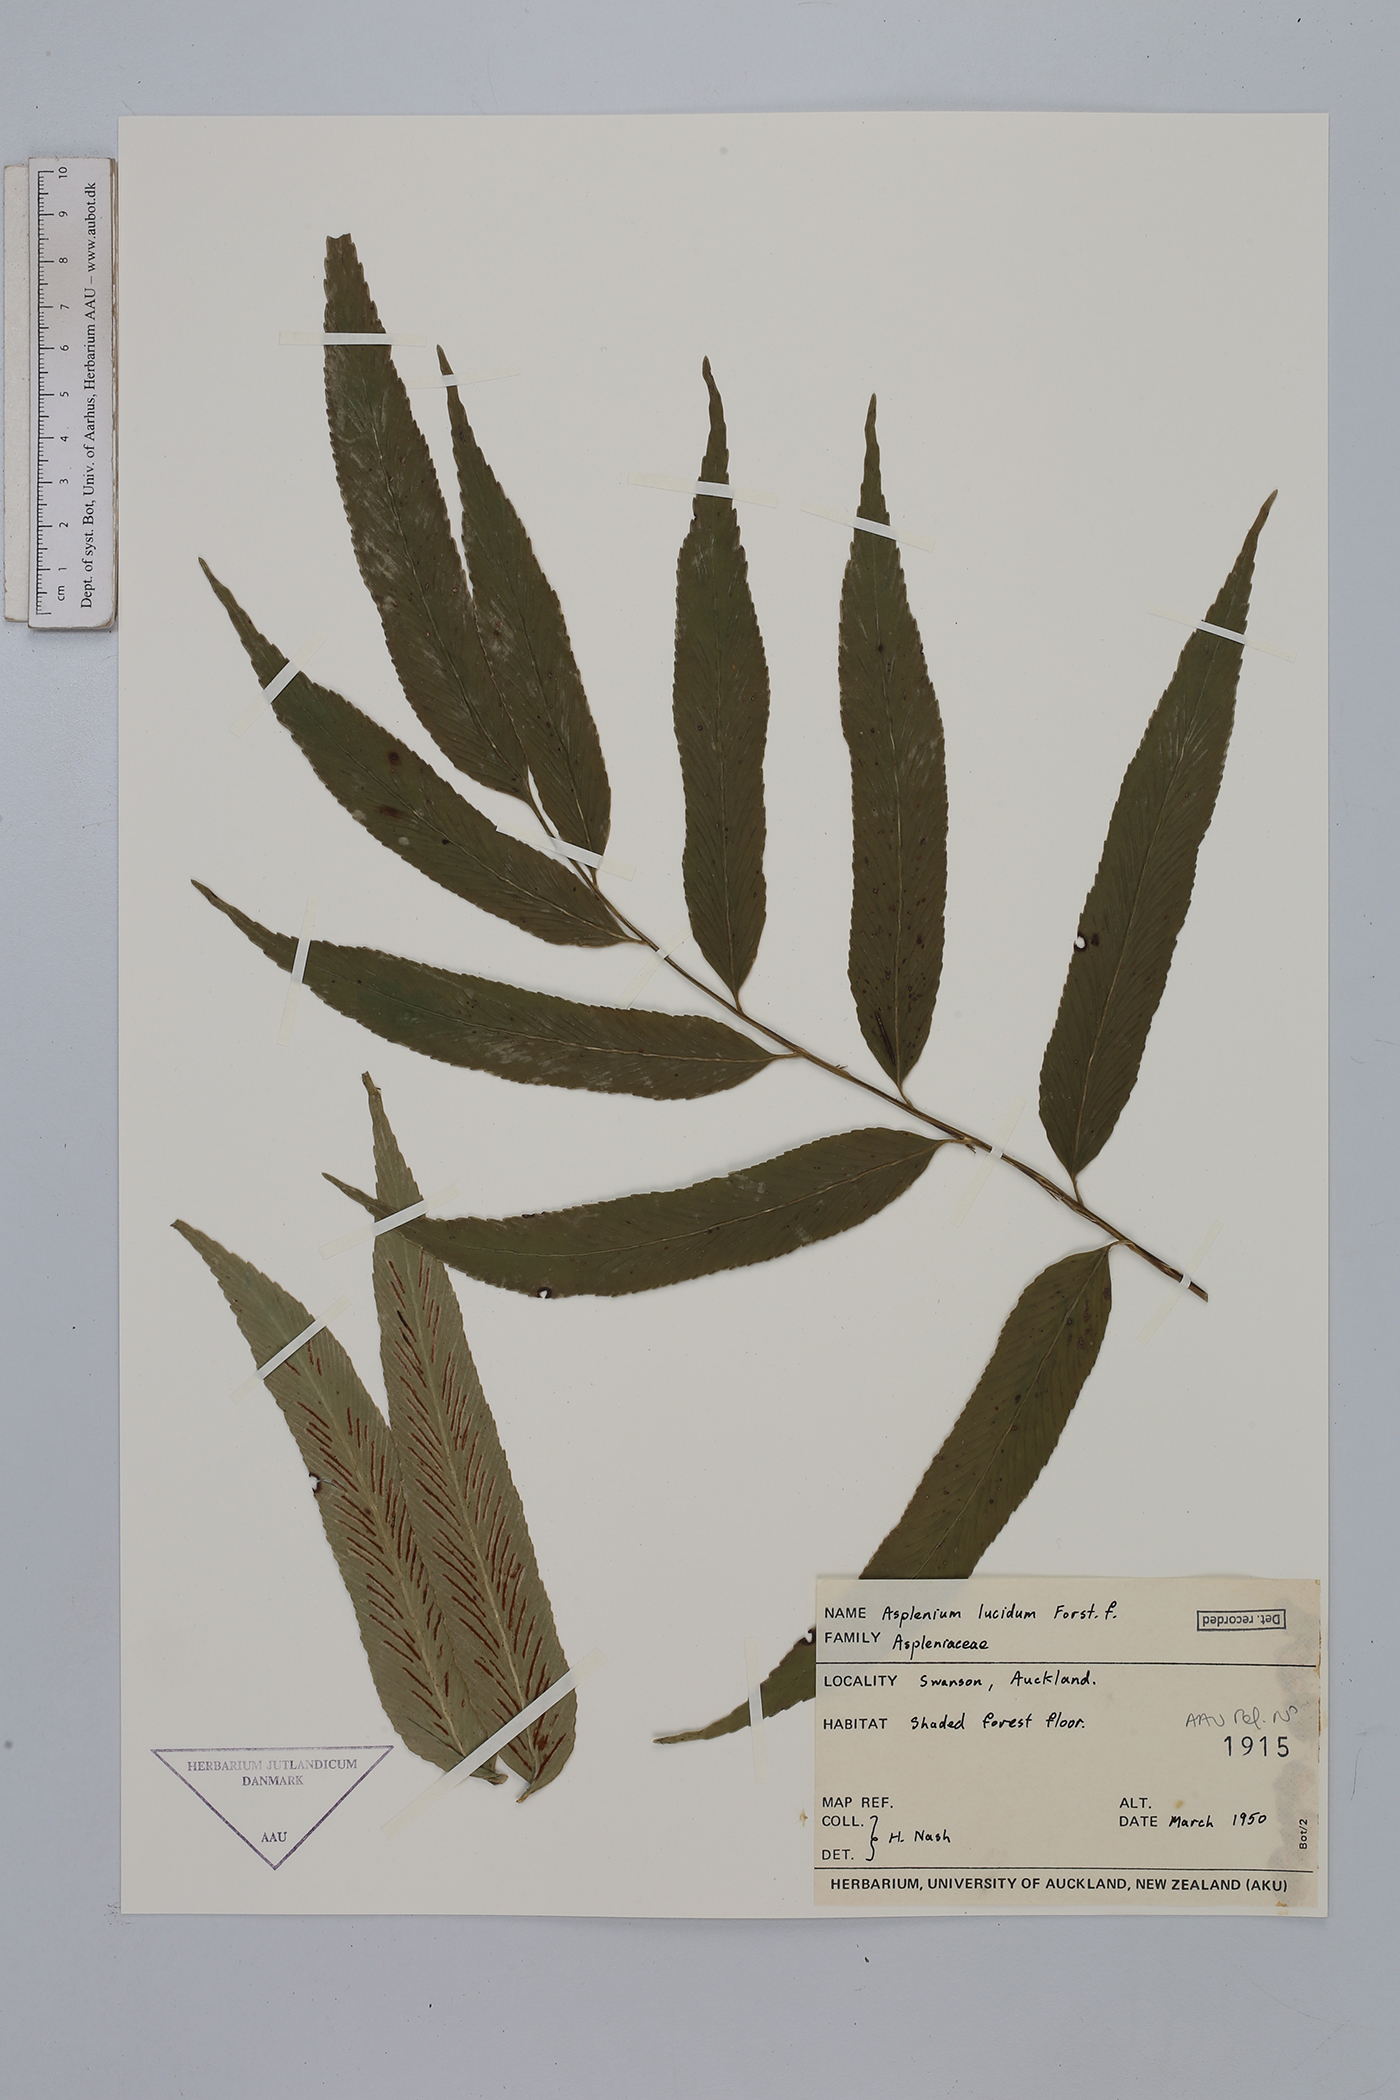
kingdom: Plantae
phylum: Tracheophyta
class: Polypodiopsida
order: Polypodiales
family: Aspleniaceae
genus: Asplenium
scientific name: Asplenium lucanum
